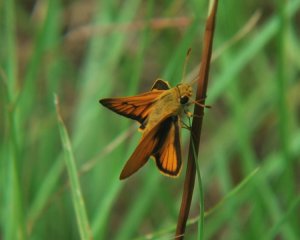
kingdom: Animalia
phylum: Arthropoda
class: Insecta
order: Lepidoptera
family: Hesperiidae
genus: Atrytone
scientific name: Atrytone delaware
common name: Delaware Skipper
